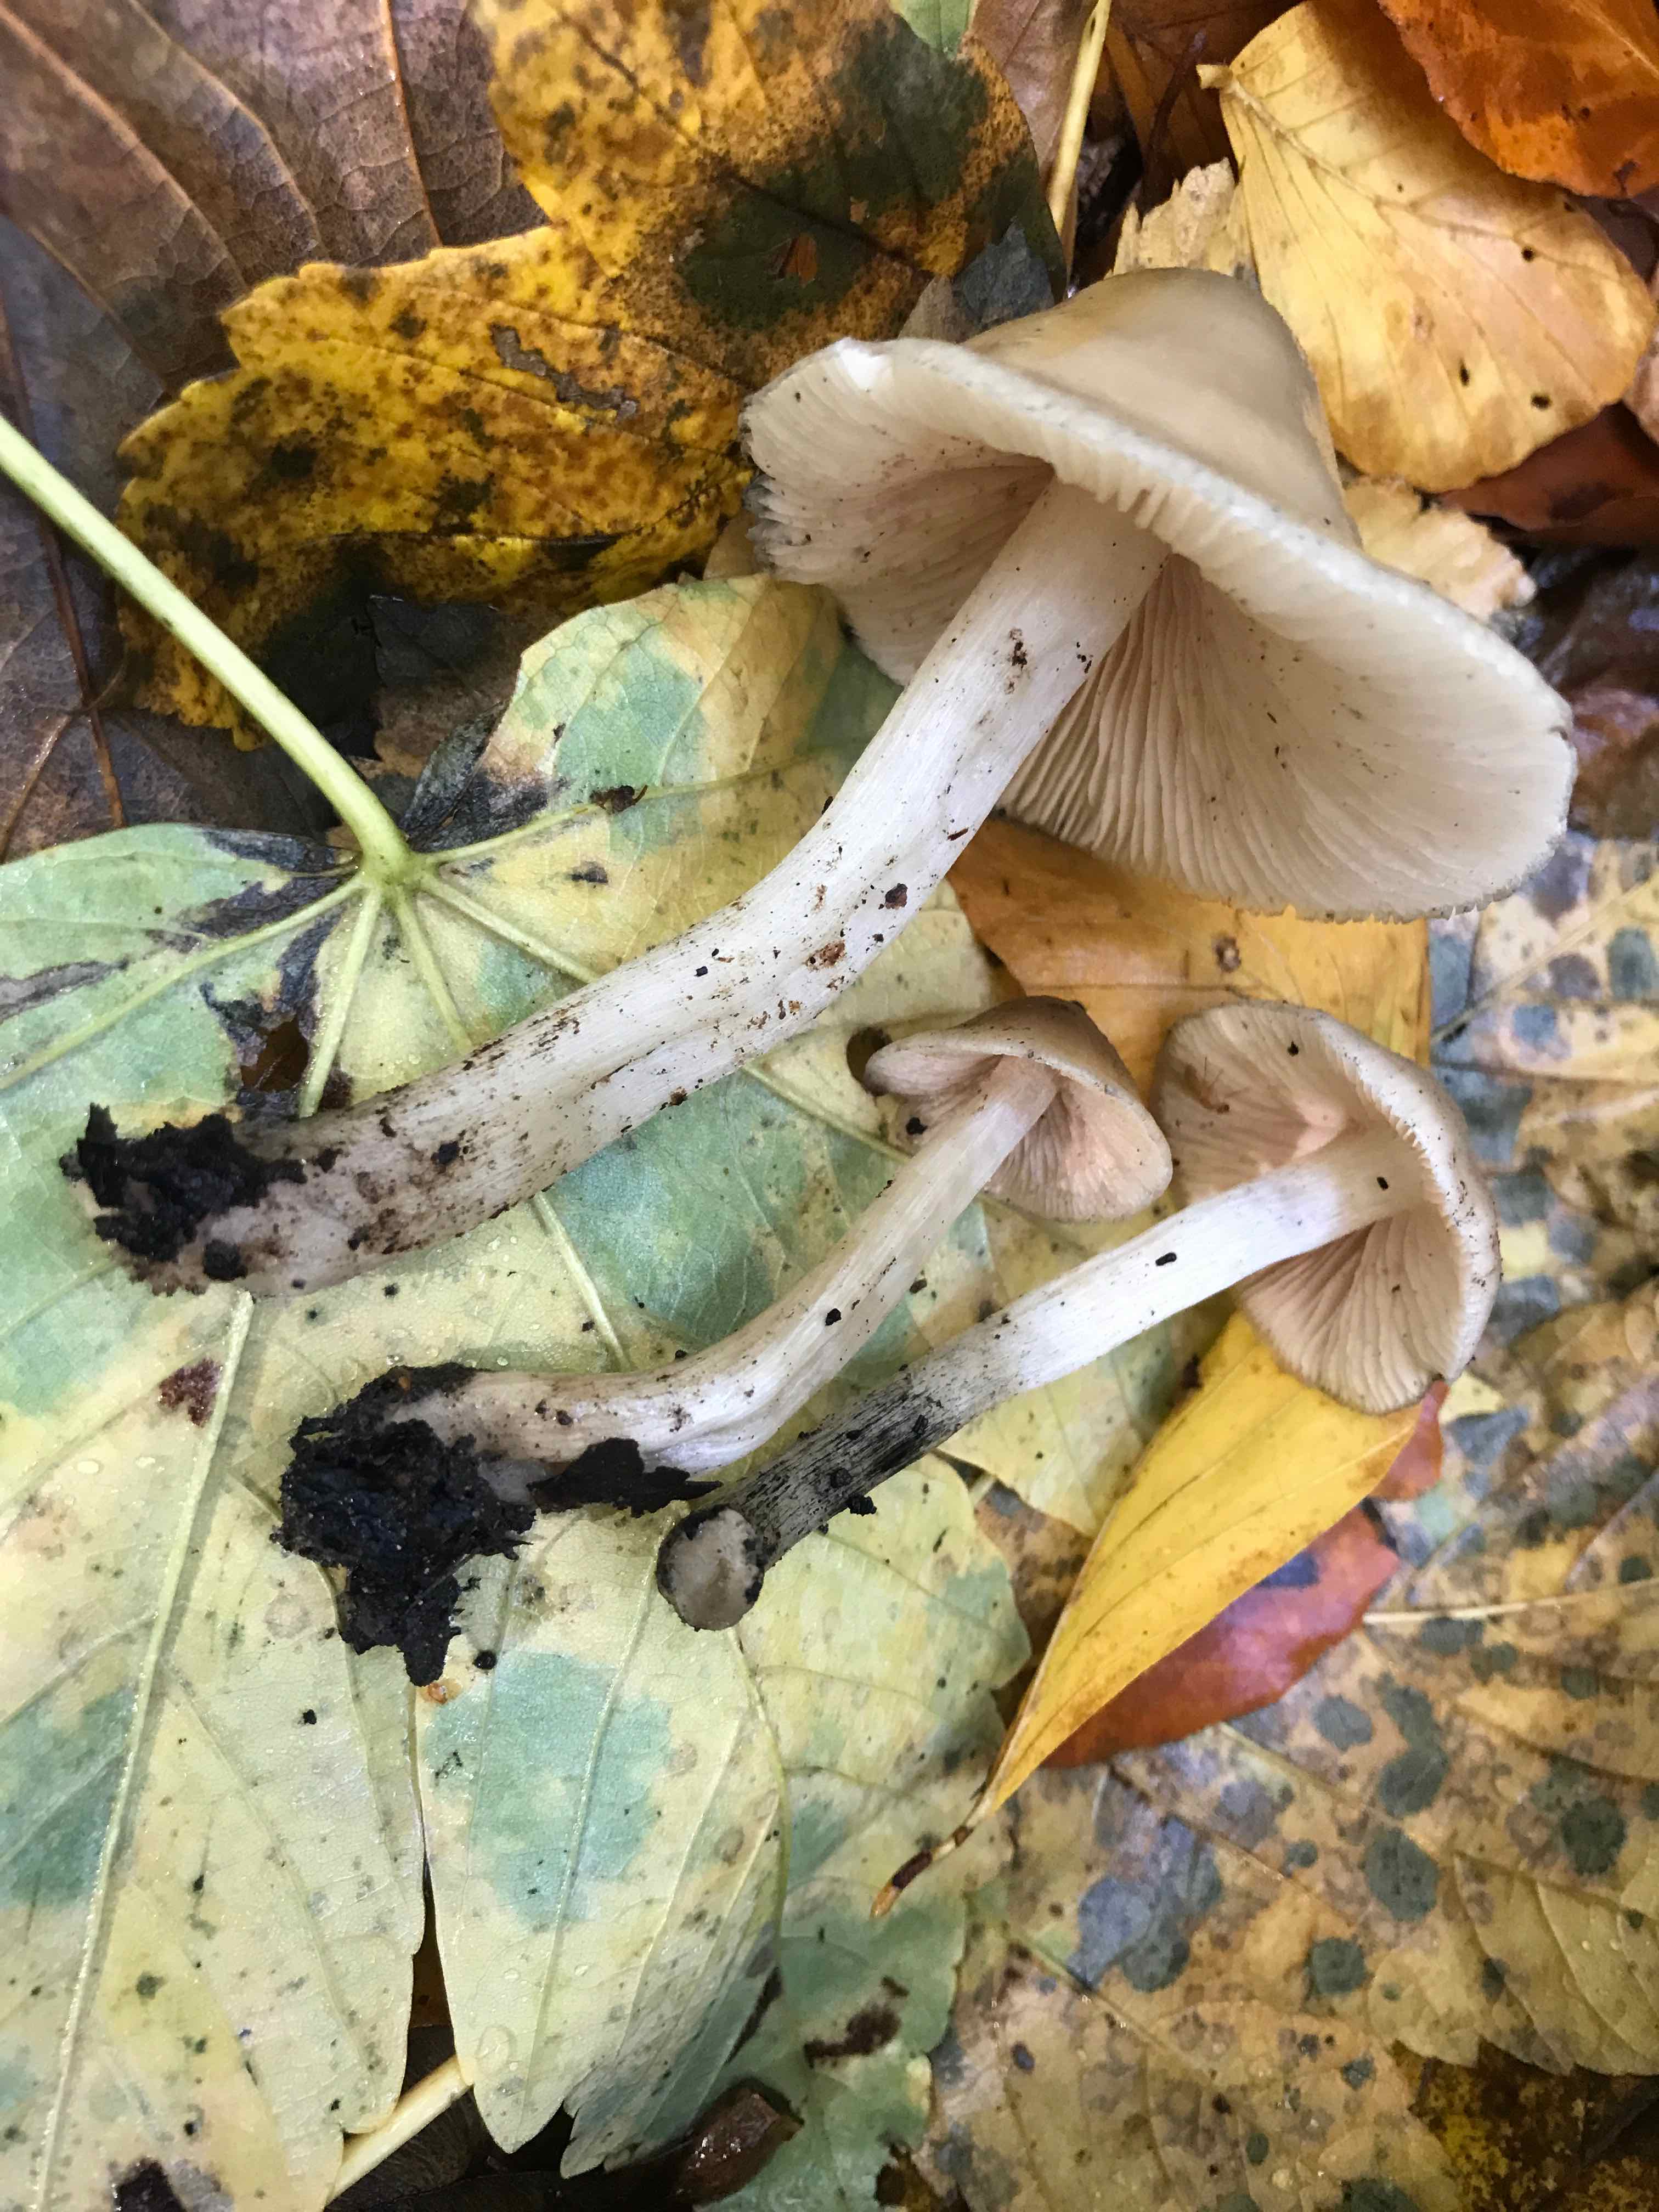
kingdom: Fungi
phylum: Basidiomycota
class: Agaricomycetes
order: Agaricales
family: Mycenaceae
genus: Mycena
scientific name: Mycena galericulata
